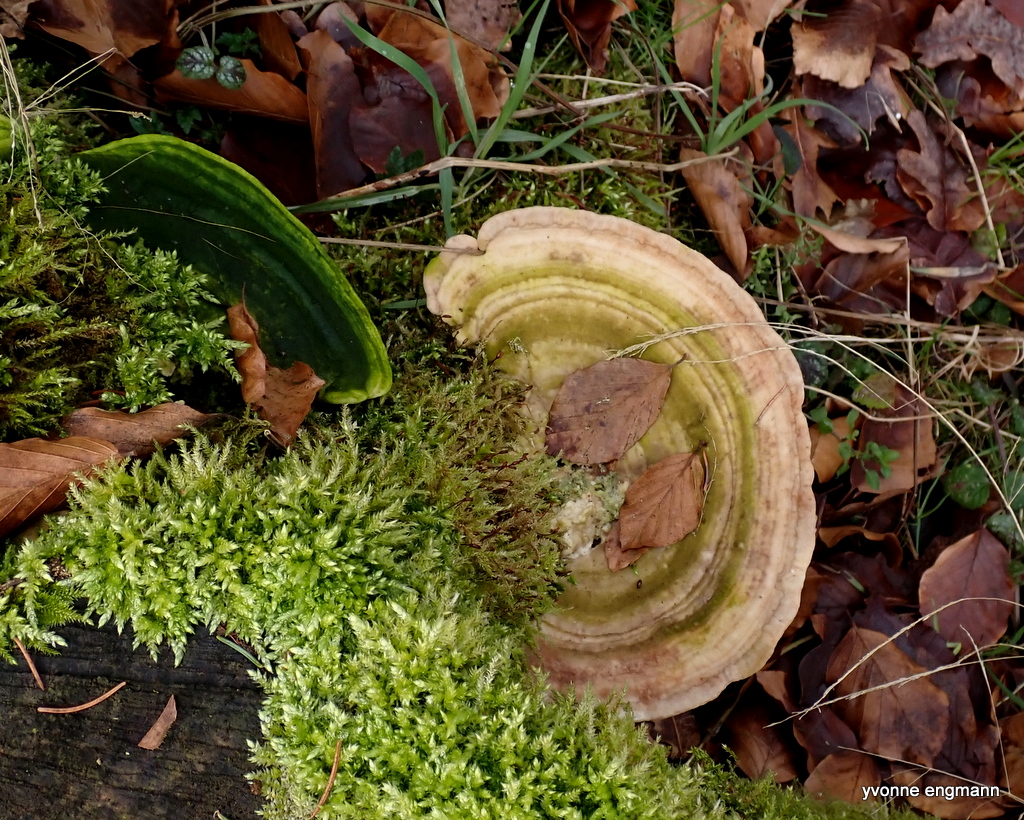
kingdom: Fungi
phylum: Basidiomycota
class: Agaricomycetes
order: Polyporales
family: Polyporaceae
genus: Trametes
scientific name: Trametes gibbosa
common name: puklet læderporesvamp
